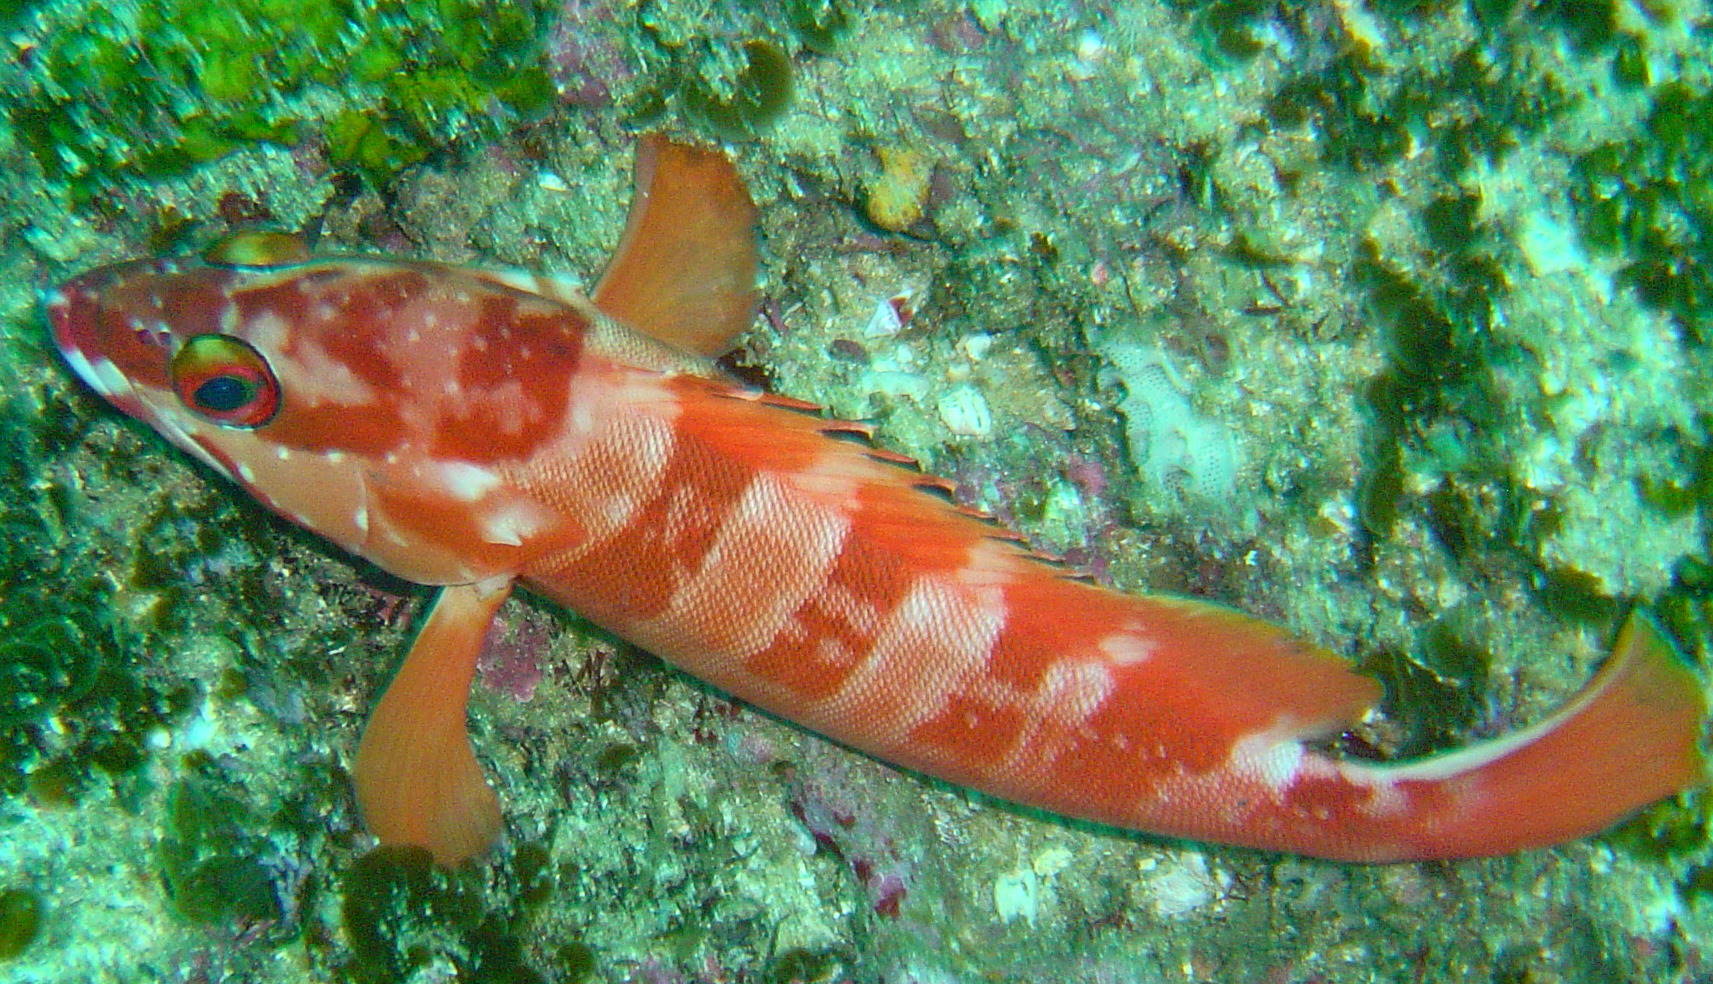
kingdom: Animalia
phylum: Chordata
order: Perciformes
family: Serranidae
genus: Epinephelus
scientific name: Epinephelus fasciatus
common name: Blacktip grouper
